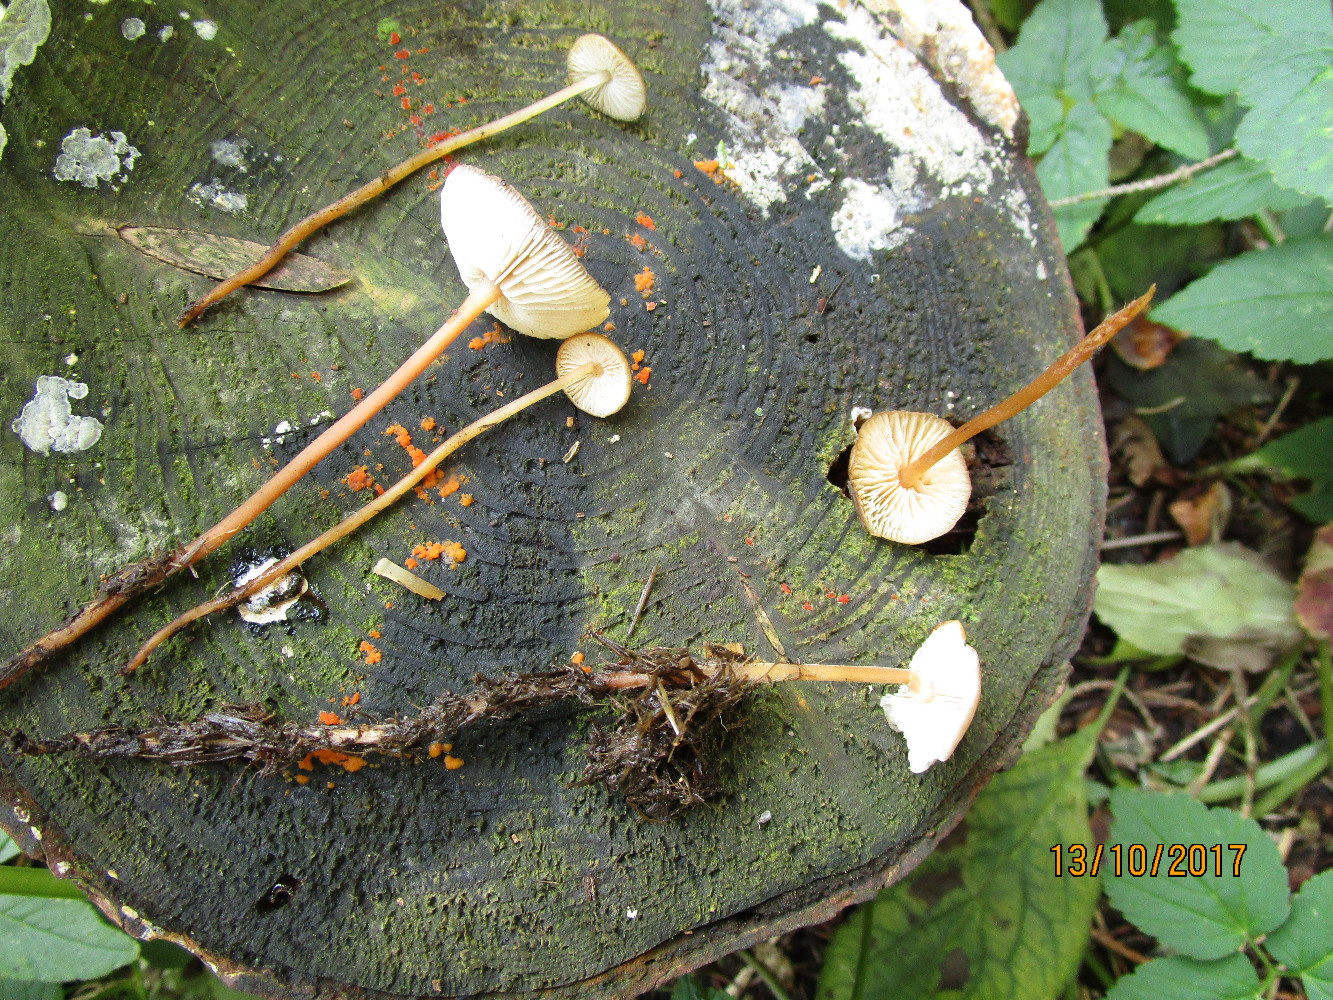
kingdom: Fungi
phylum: Basidiomycota
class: Agaricomycetes
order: Agaricales
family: Physalacriaceae
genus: Strobilurus
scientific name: Strobilurus esculentus
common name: gran-koglehat
